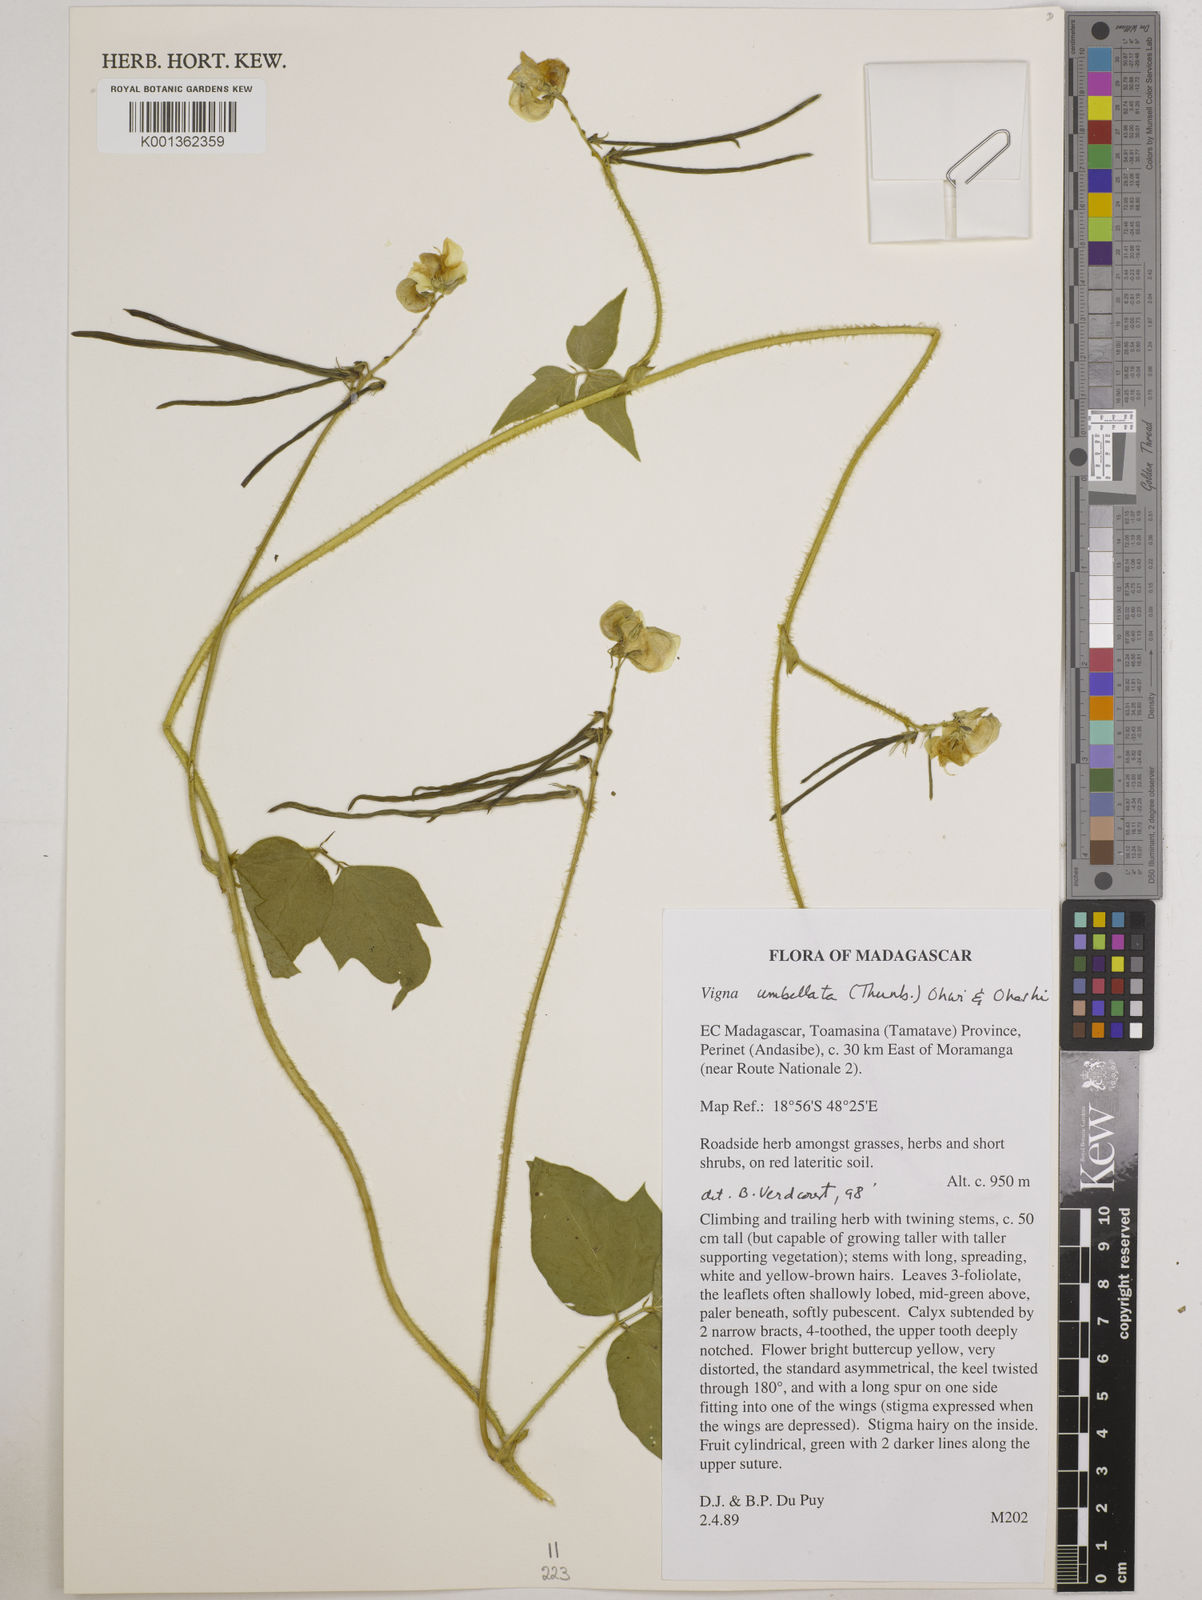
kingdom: Plantae
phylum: Tracheophyta
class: Magnoliopsida
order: Fabales
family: Fabaceae
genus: Vigna
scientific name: Vigna
